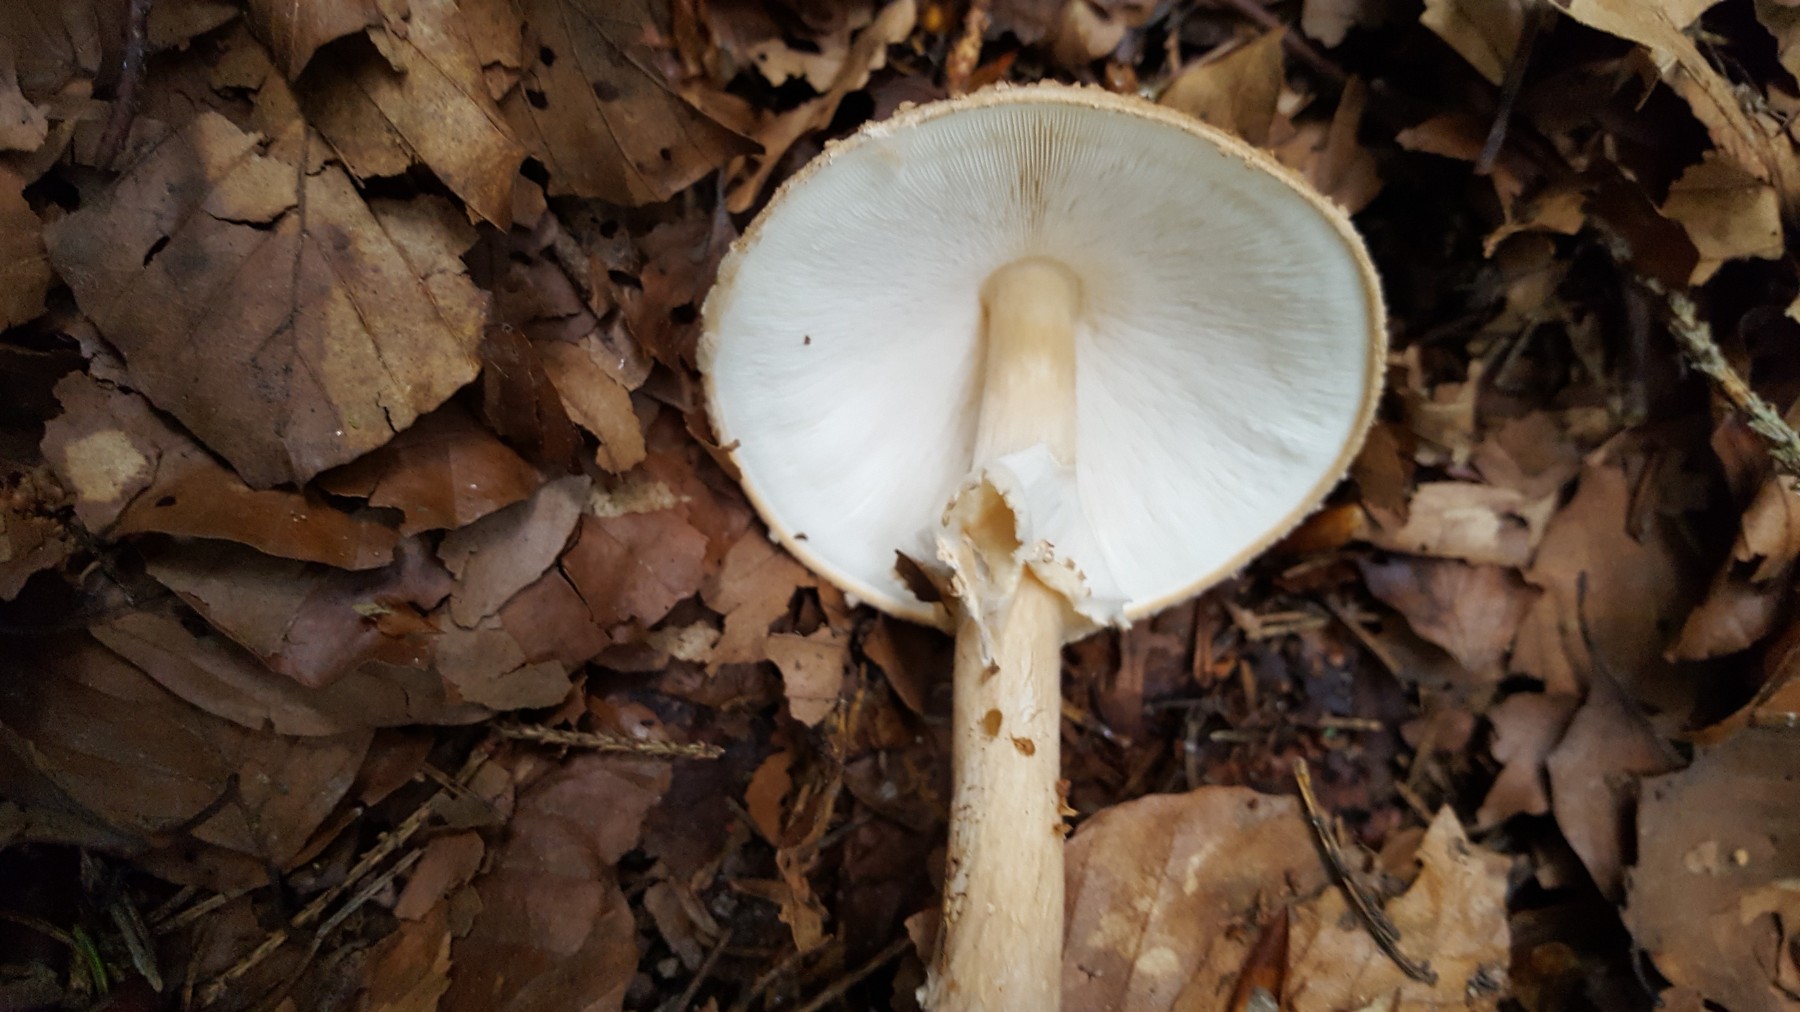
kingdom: Fungi
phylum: Basidiomycota
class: Agaricomycetes
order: Agaricales
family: Agaricaceae
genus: Echinoderma
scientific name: Echinoderma asperum
